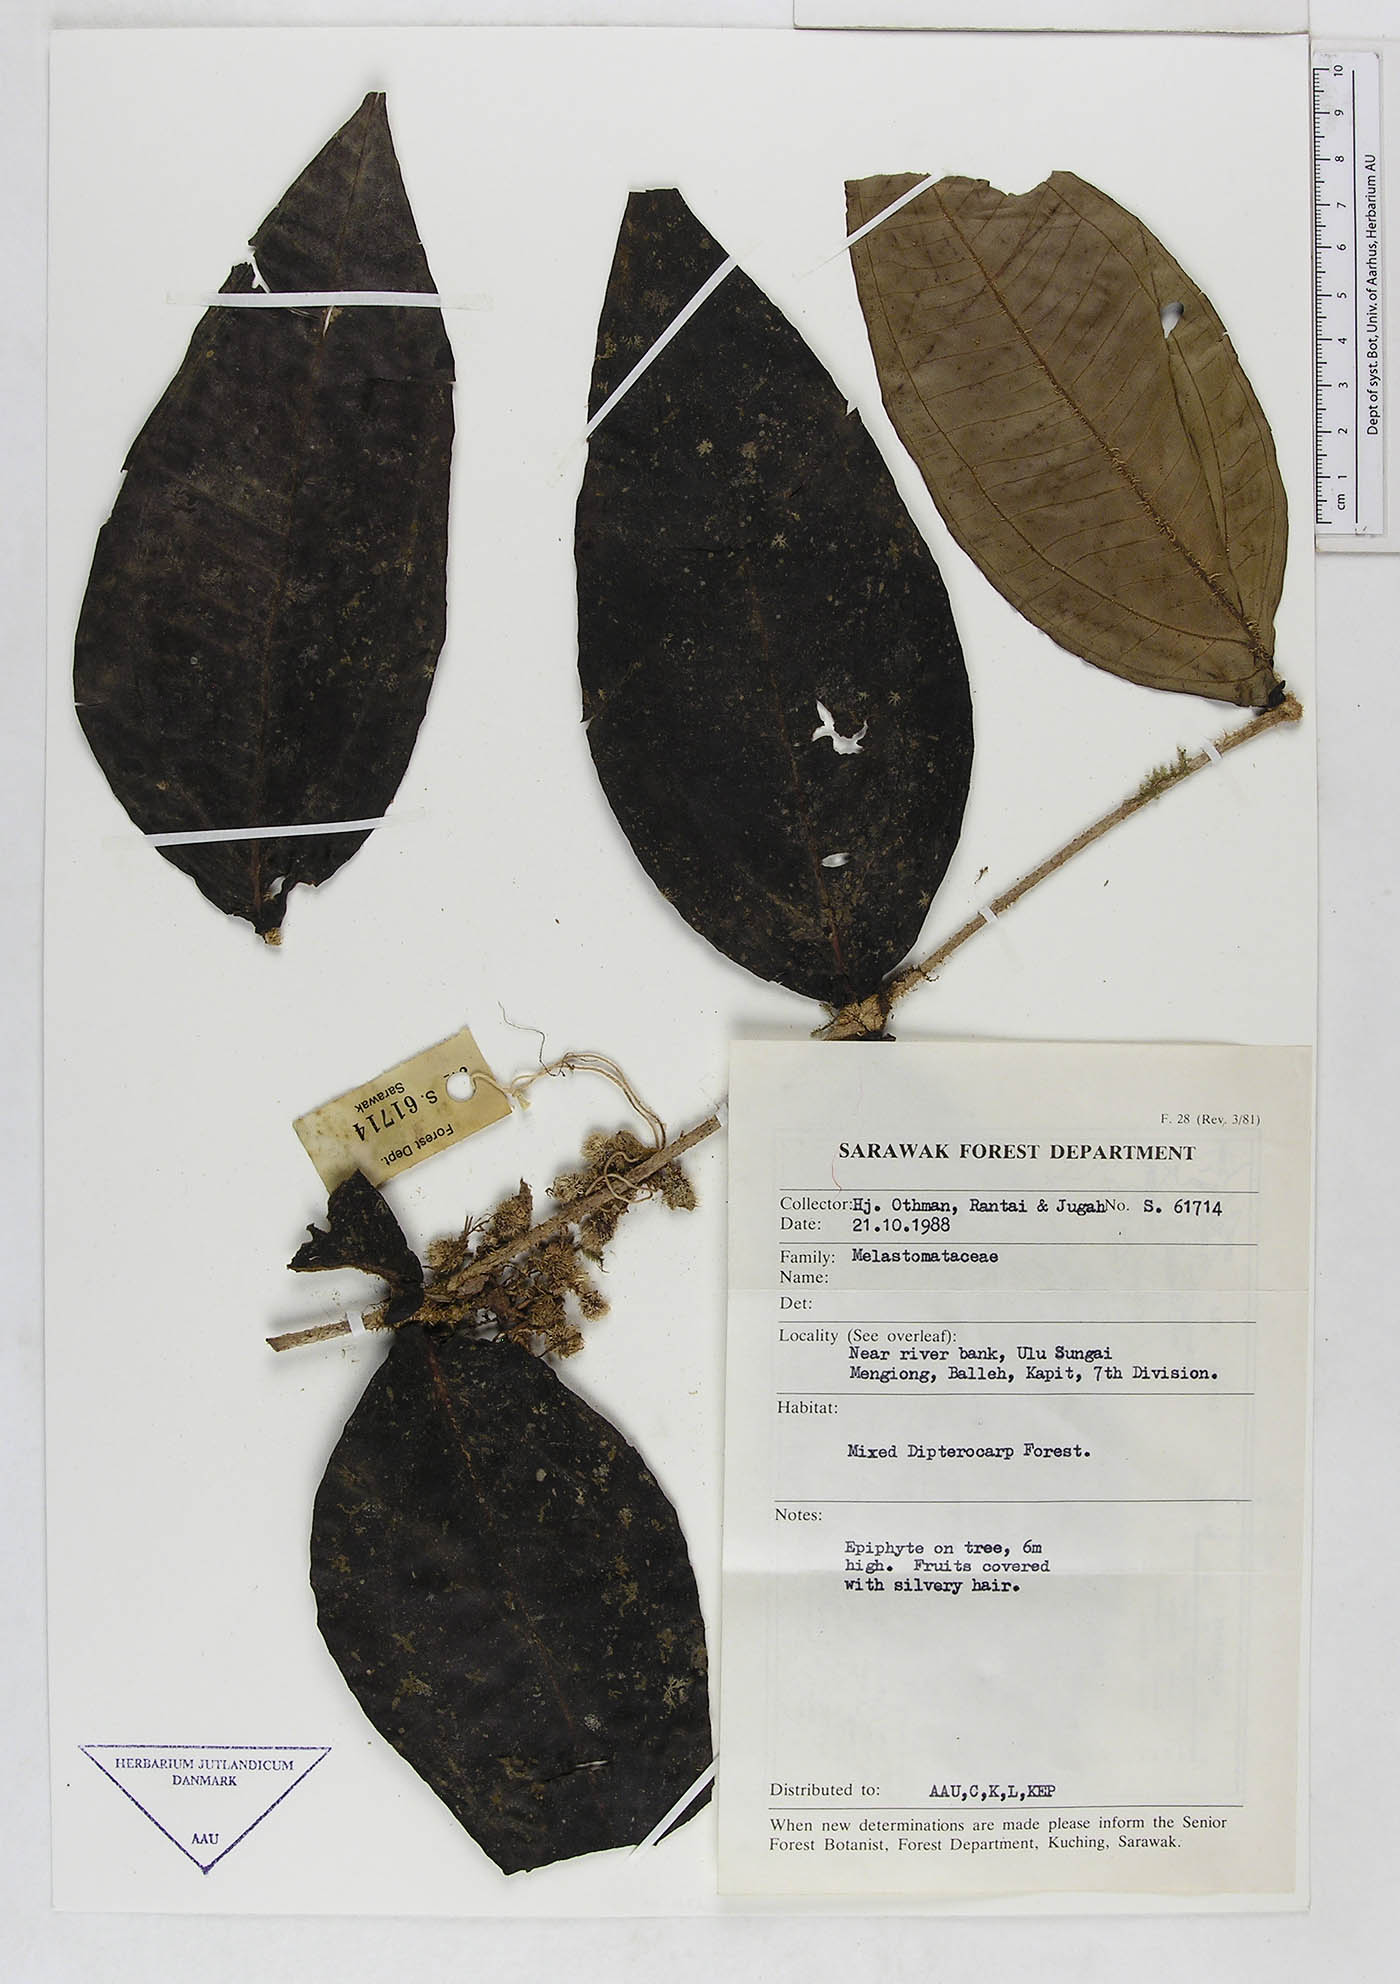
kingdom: Plantae
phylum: Tracheophyta
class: Magnoliopsida
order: Myrtales
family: Melastomataceae
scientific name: Melastomataceae
